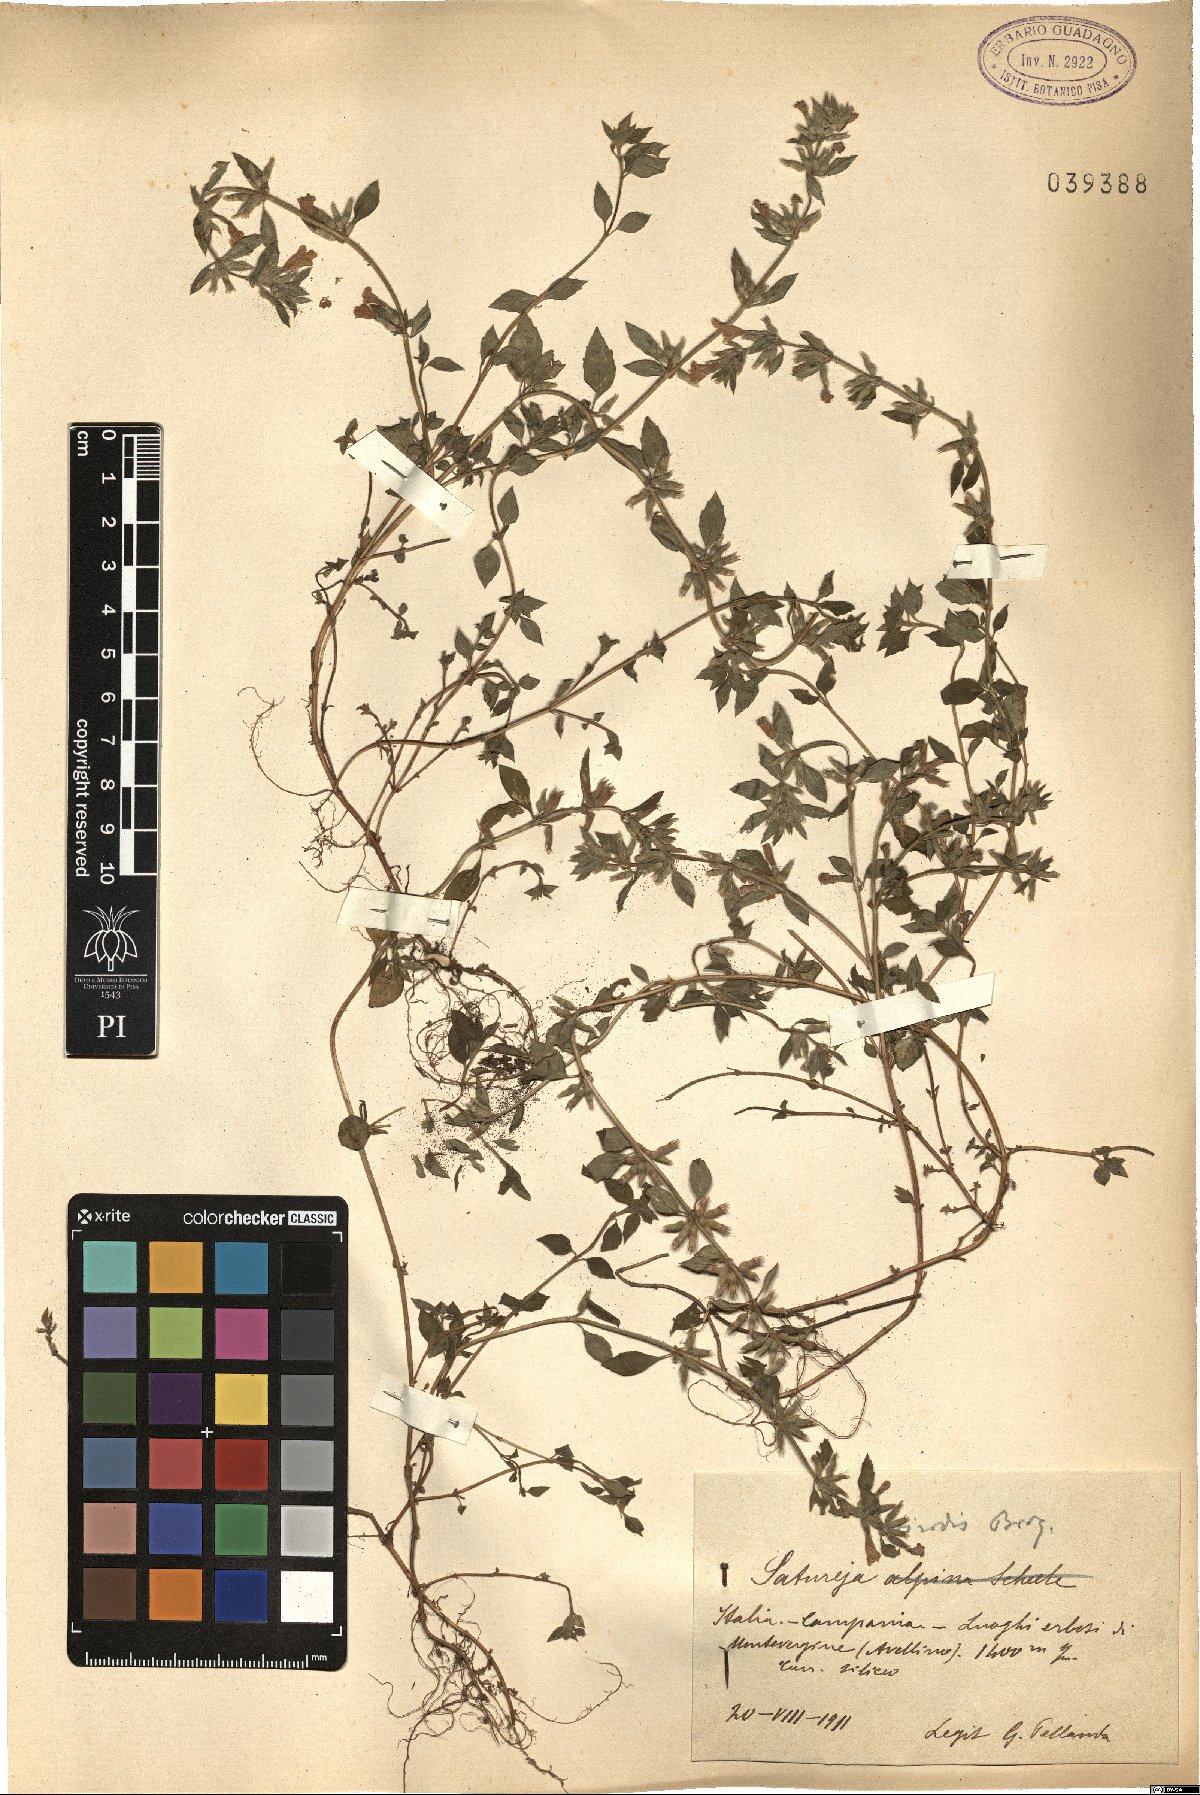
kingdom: Plantae
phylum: Tracheophyta
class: Magnoliopsida
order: Lamiales
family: Lamiaceae
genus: Clinopodium
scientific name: Clinopodium alpinum
